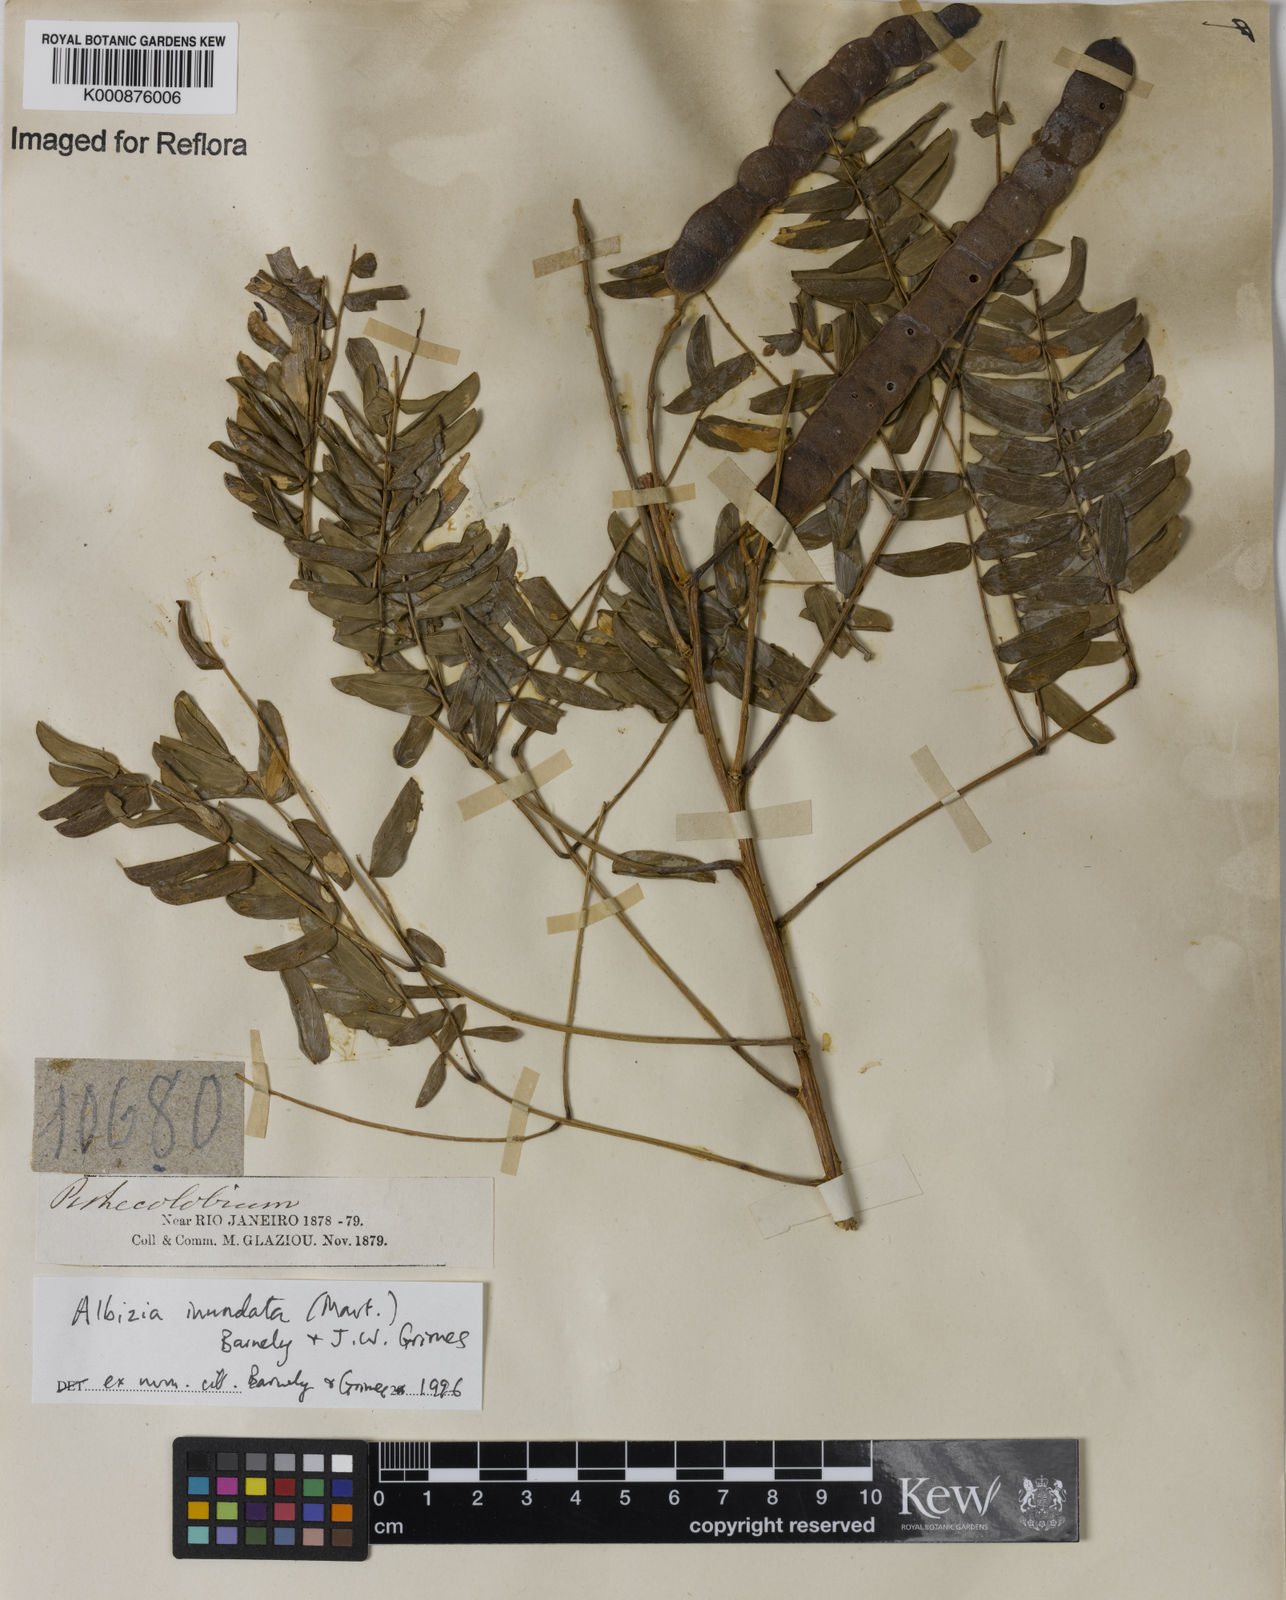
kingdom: Plantae
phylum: Tracheophyta
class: Magnoliopsida
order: Fabales
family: Fabaceae
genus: Albizia
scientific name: Albizia inundata
